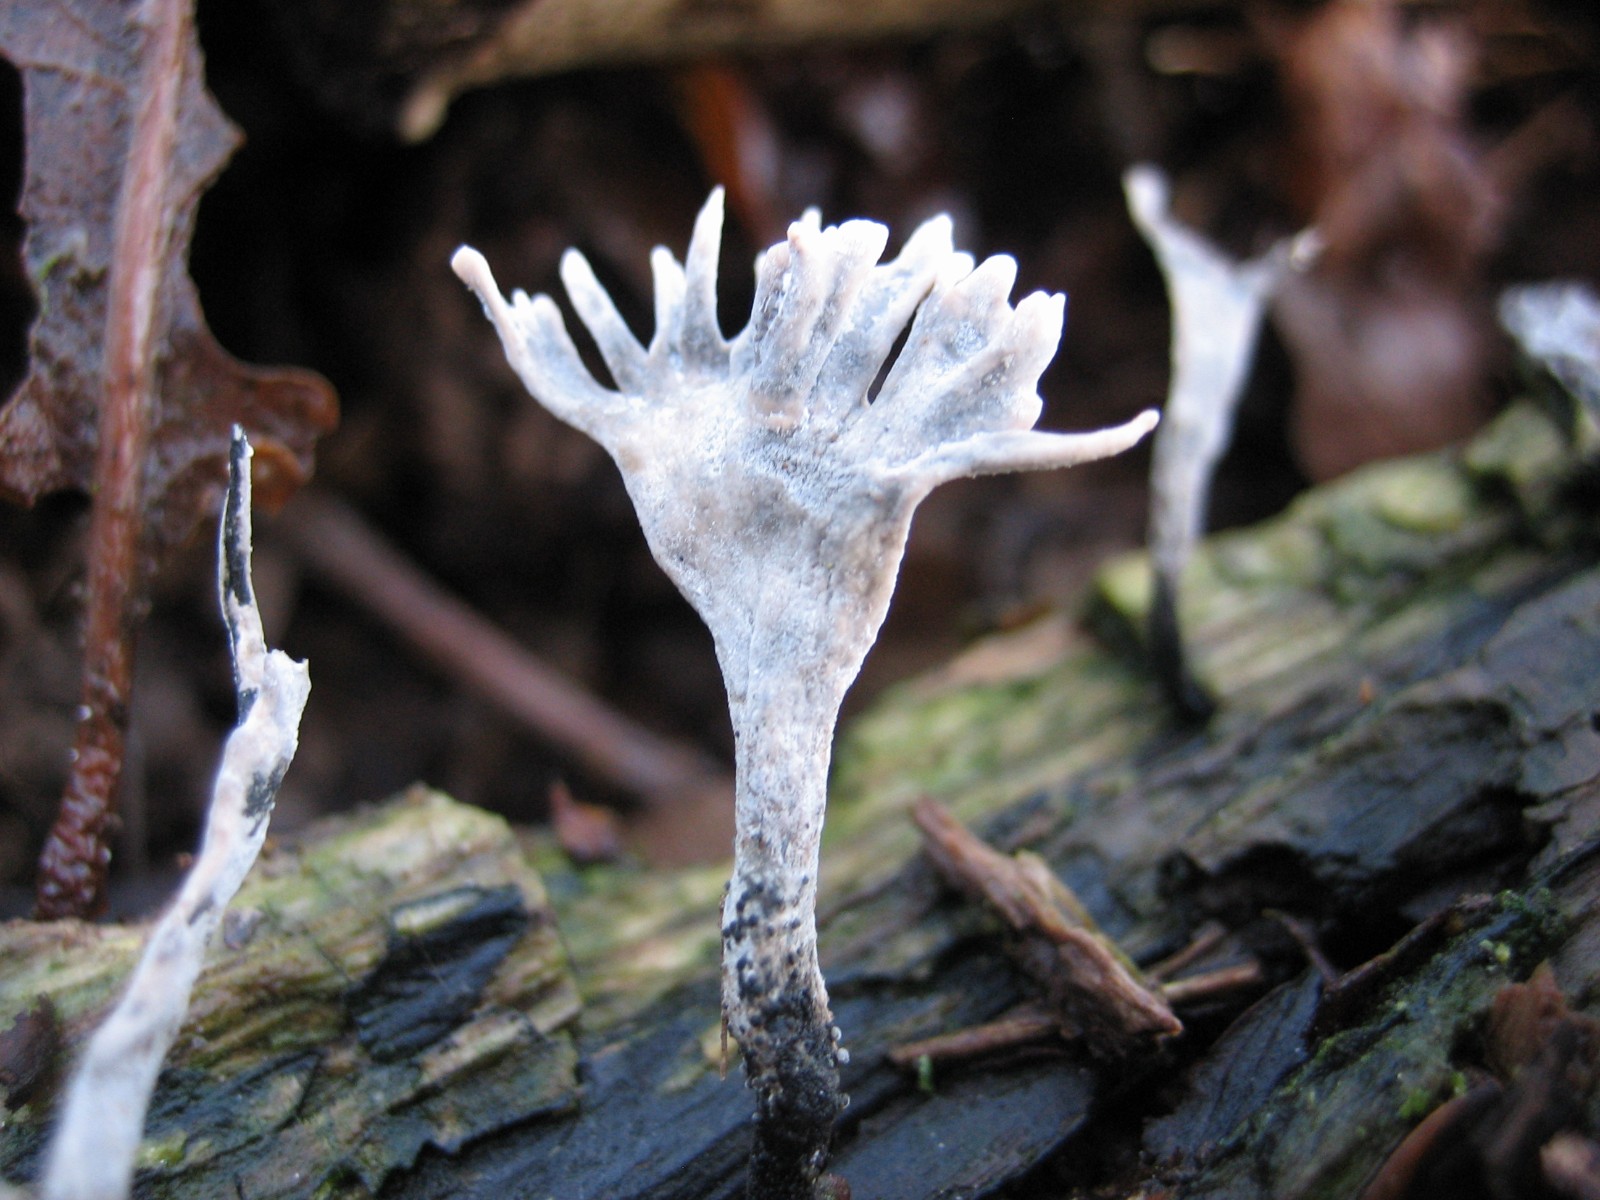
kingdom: Fungi
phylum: Ascomycota
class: Sordariomycetes
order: Xylariales
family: Xylariaceae
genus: Xylaria
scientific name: Xylaria hypoxylon
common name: grenet stødsvamp
